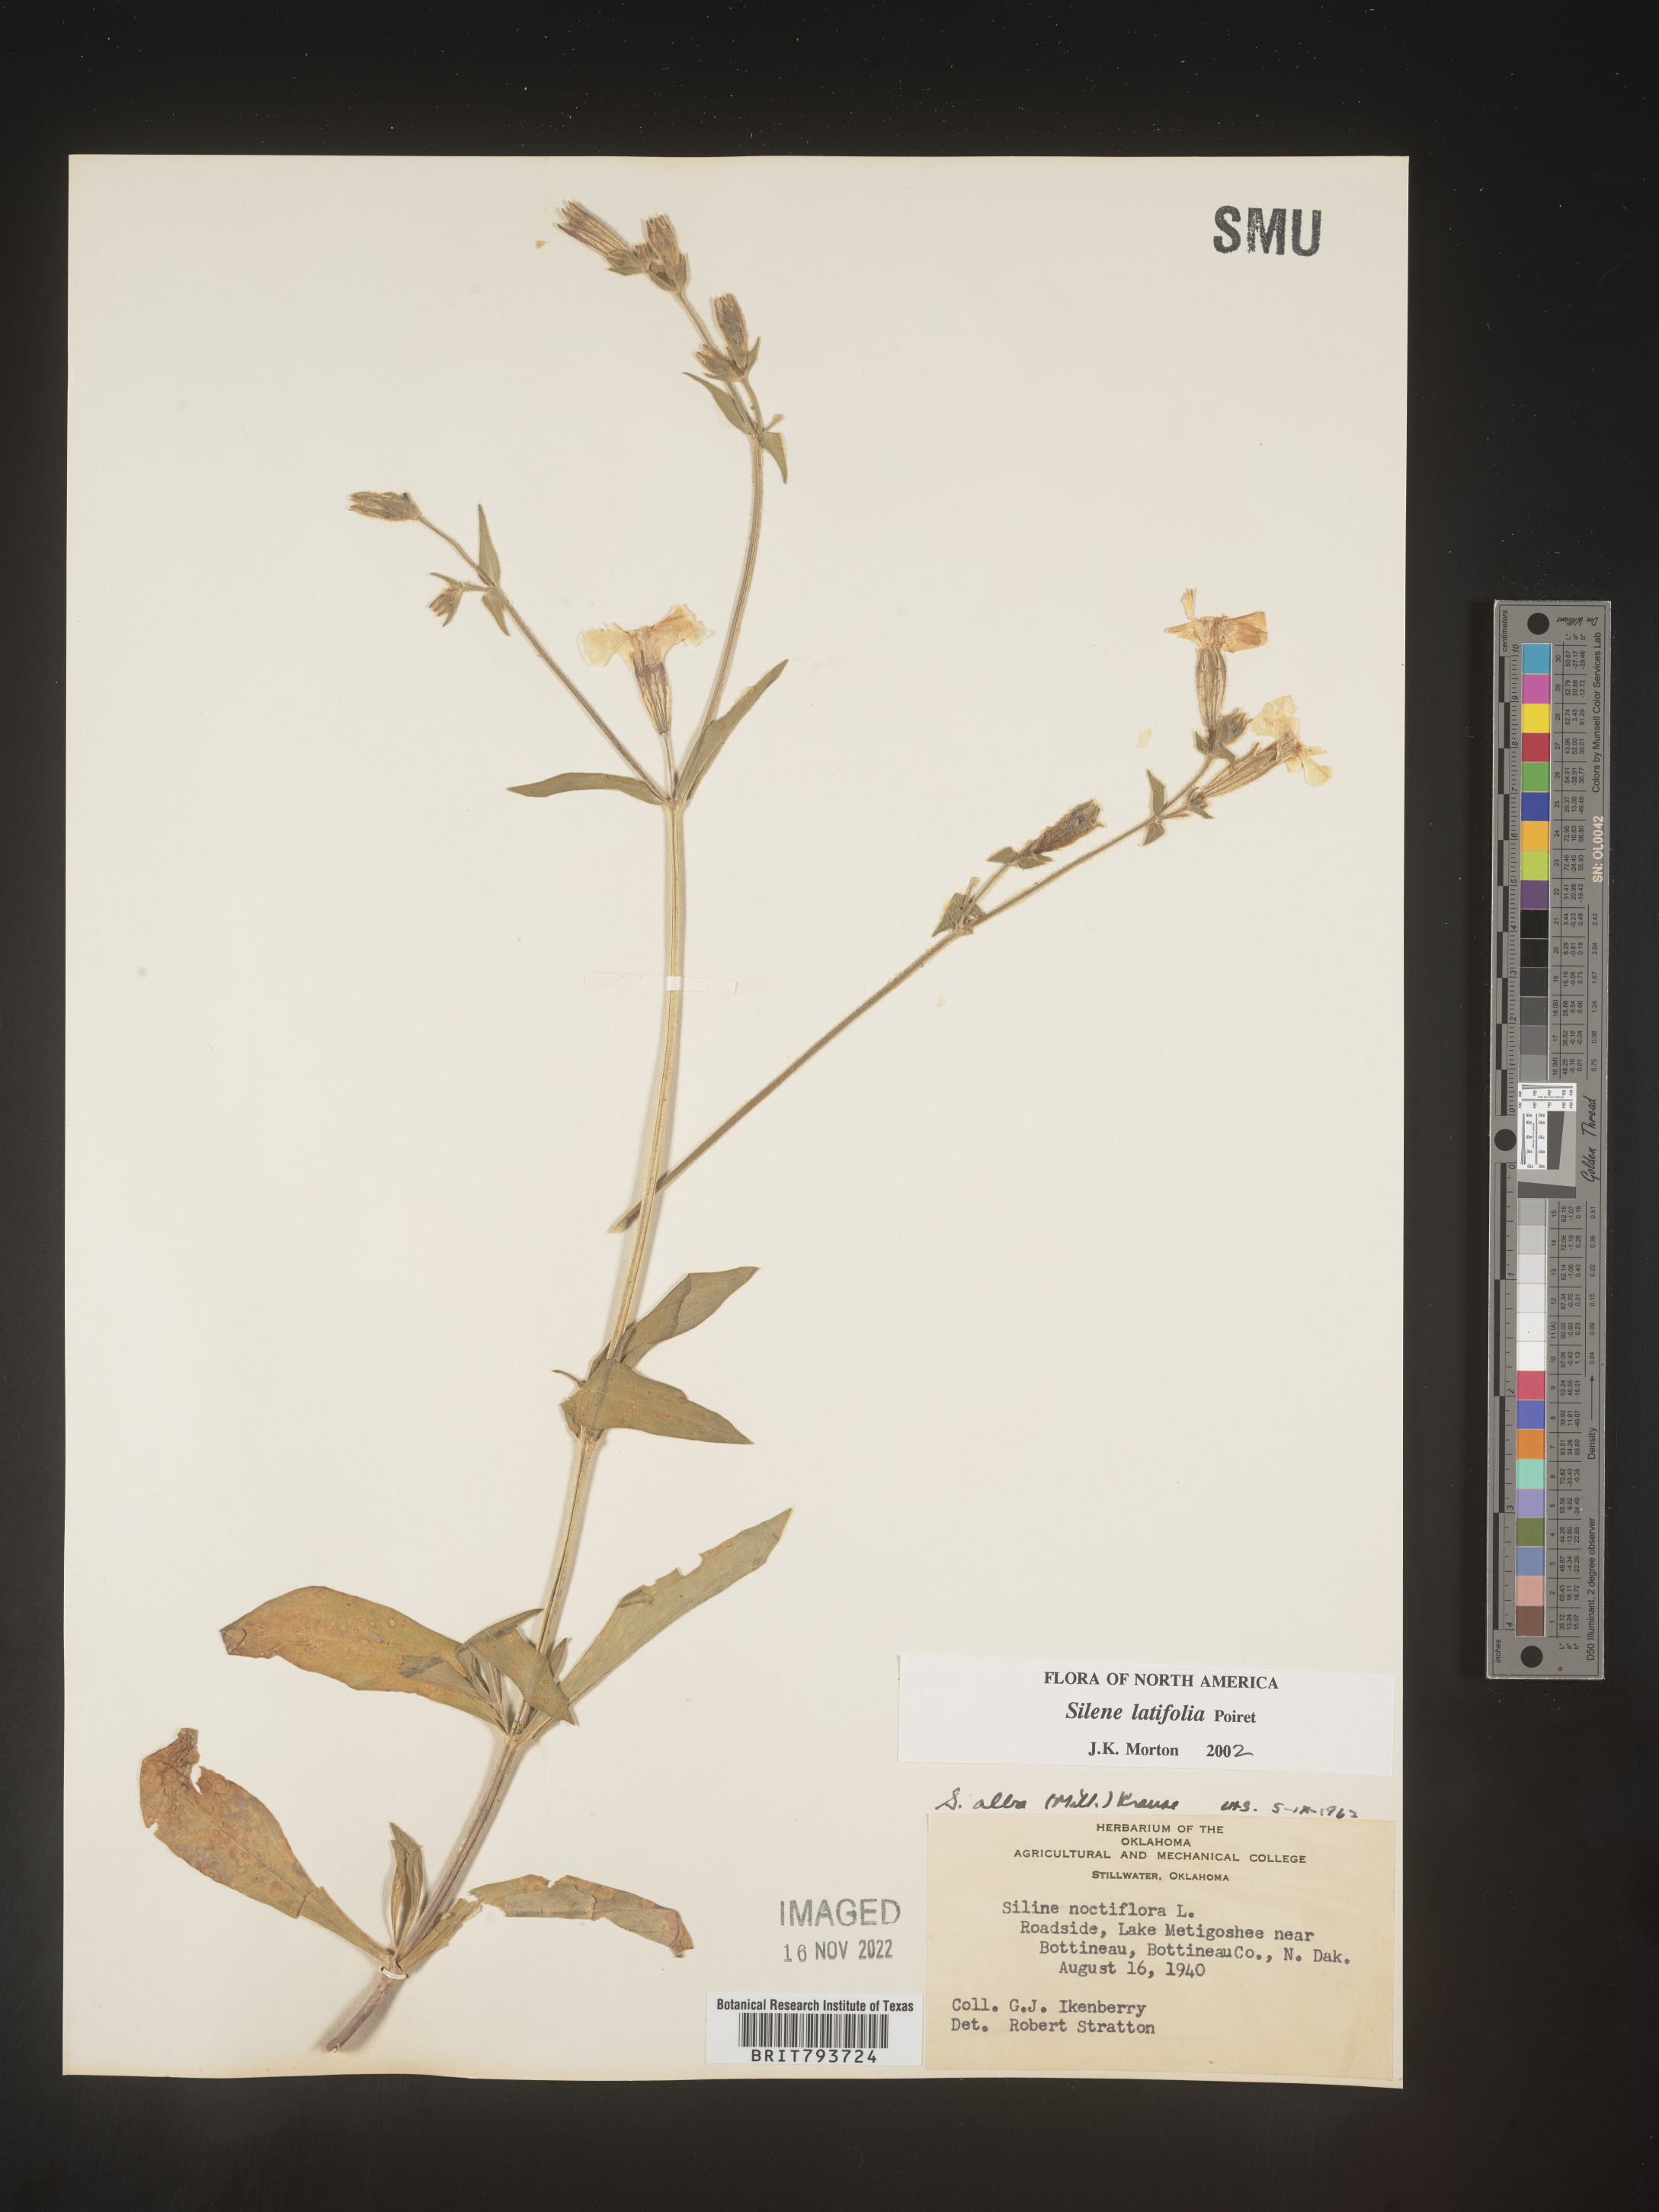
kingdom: Plantae
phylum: Tracheophyta
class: Magnoliopsida
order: Caryophyllales
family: Caryophyllaceae
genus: Silene
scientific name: Silene latifolia
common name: White campion
